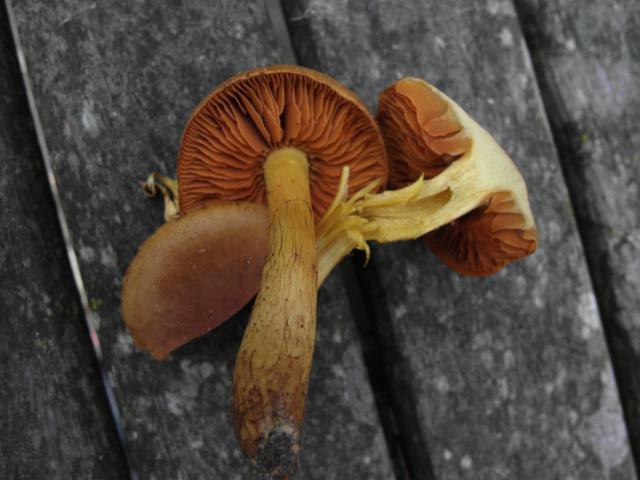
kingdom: Fungi
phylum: Basidiomycota
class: Agaricomycetes
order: Agaricales
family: Cortinariaceae
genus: Cortinarius
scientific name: Cortinarius malicorius
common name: grønkødet slørhat
